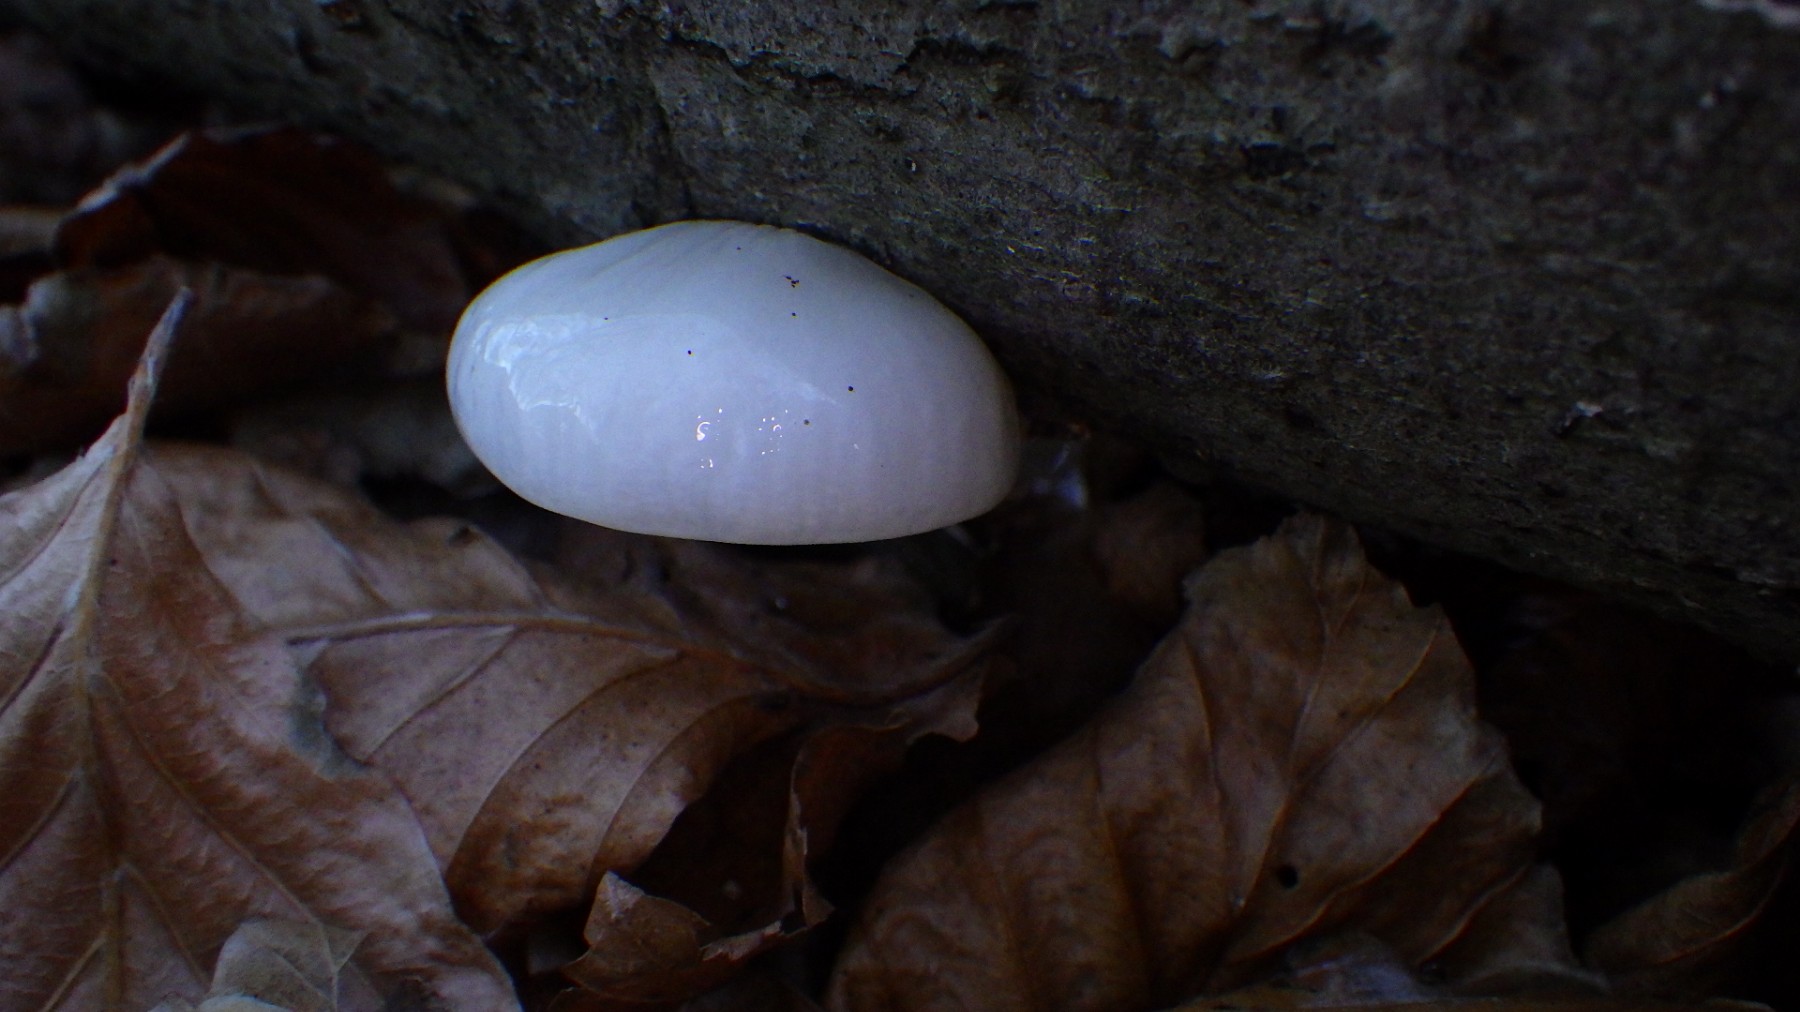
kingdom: Fungi
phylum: Basidiomycota
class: Agaricomycetes
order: Agaricales
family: Physalacriaceae
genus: Mucidula
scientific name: Mucidula mucida
